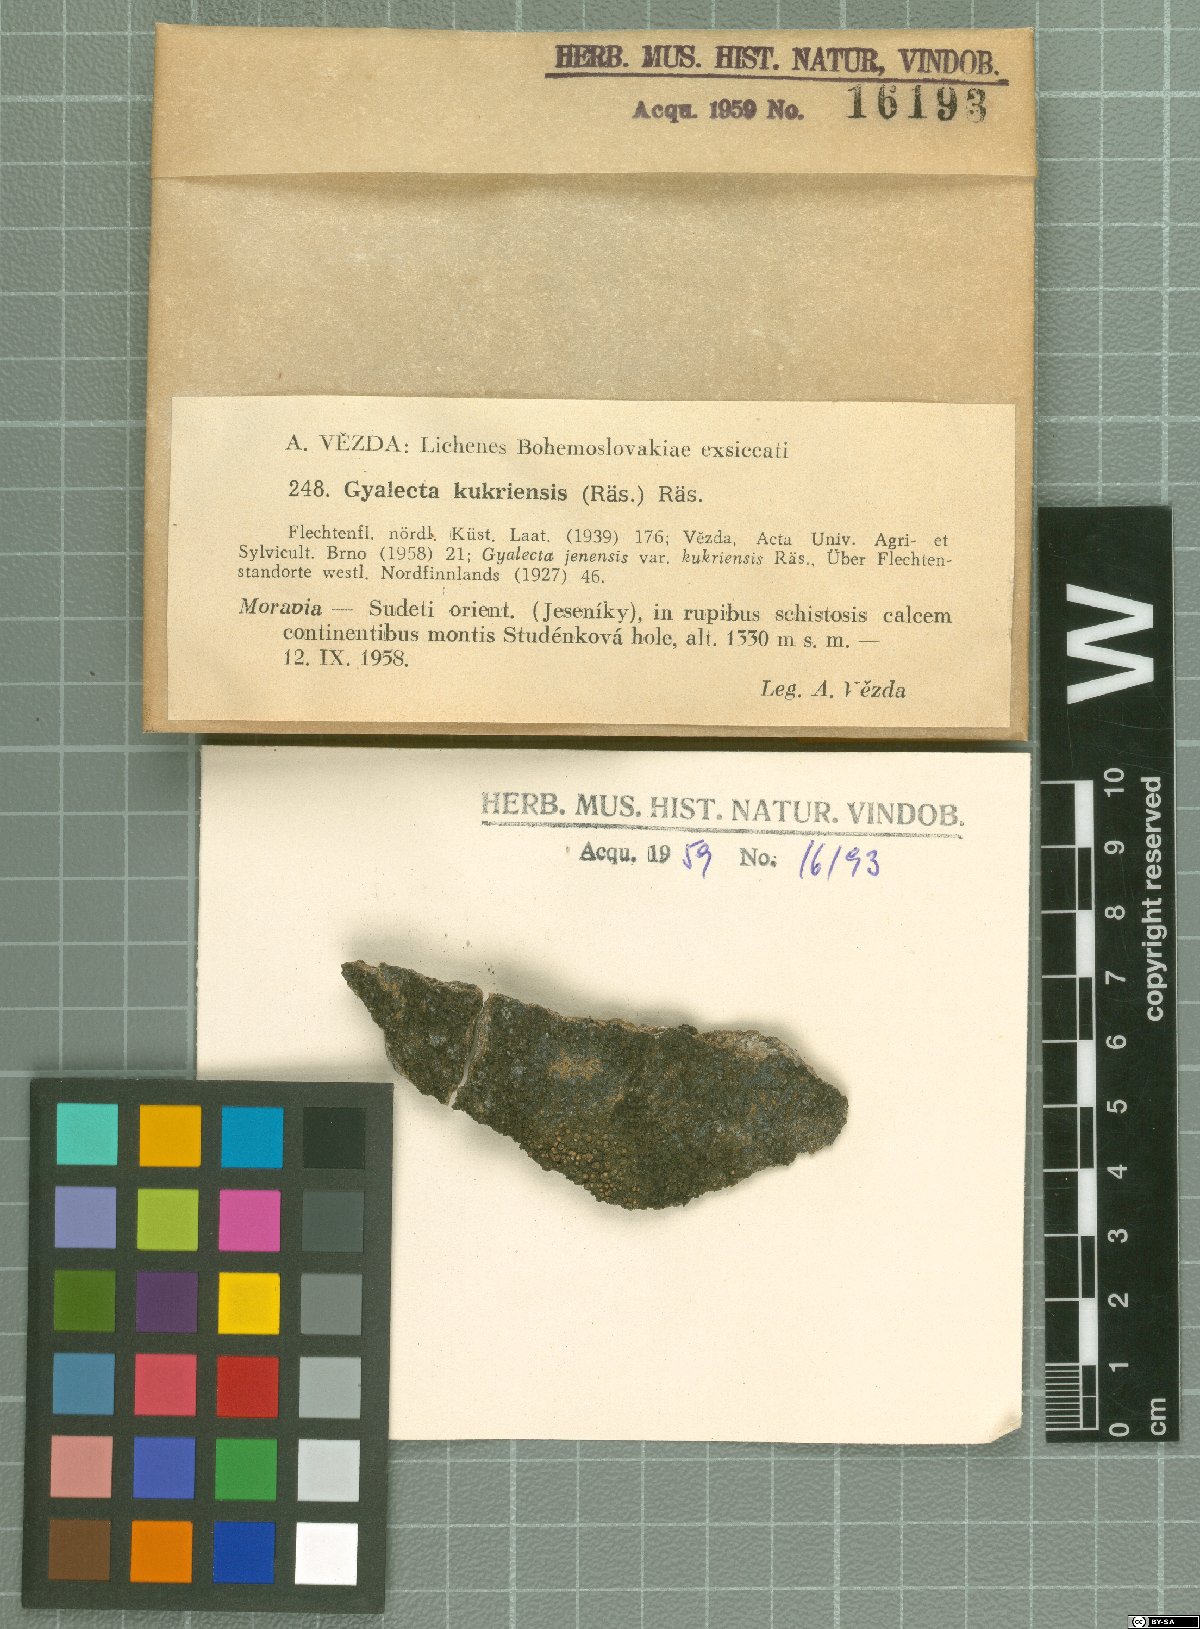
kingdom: Fungi
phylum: Ascomycota
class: Lecanoromycetes
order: Gyalectales
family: Gyalectaceae
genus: Gyalecta
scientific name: Gyalecta kukriensis
